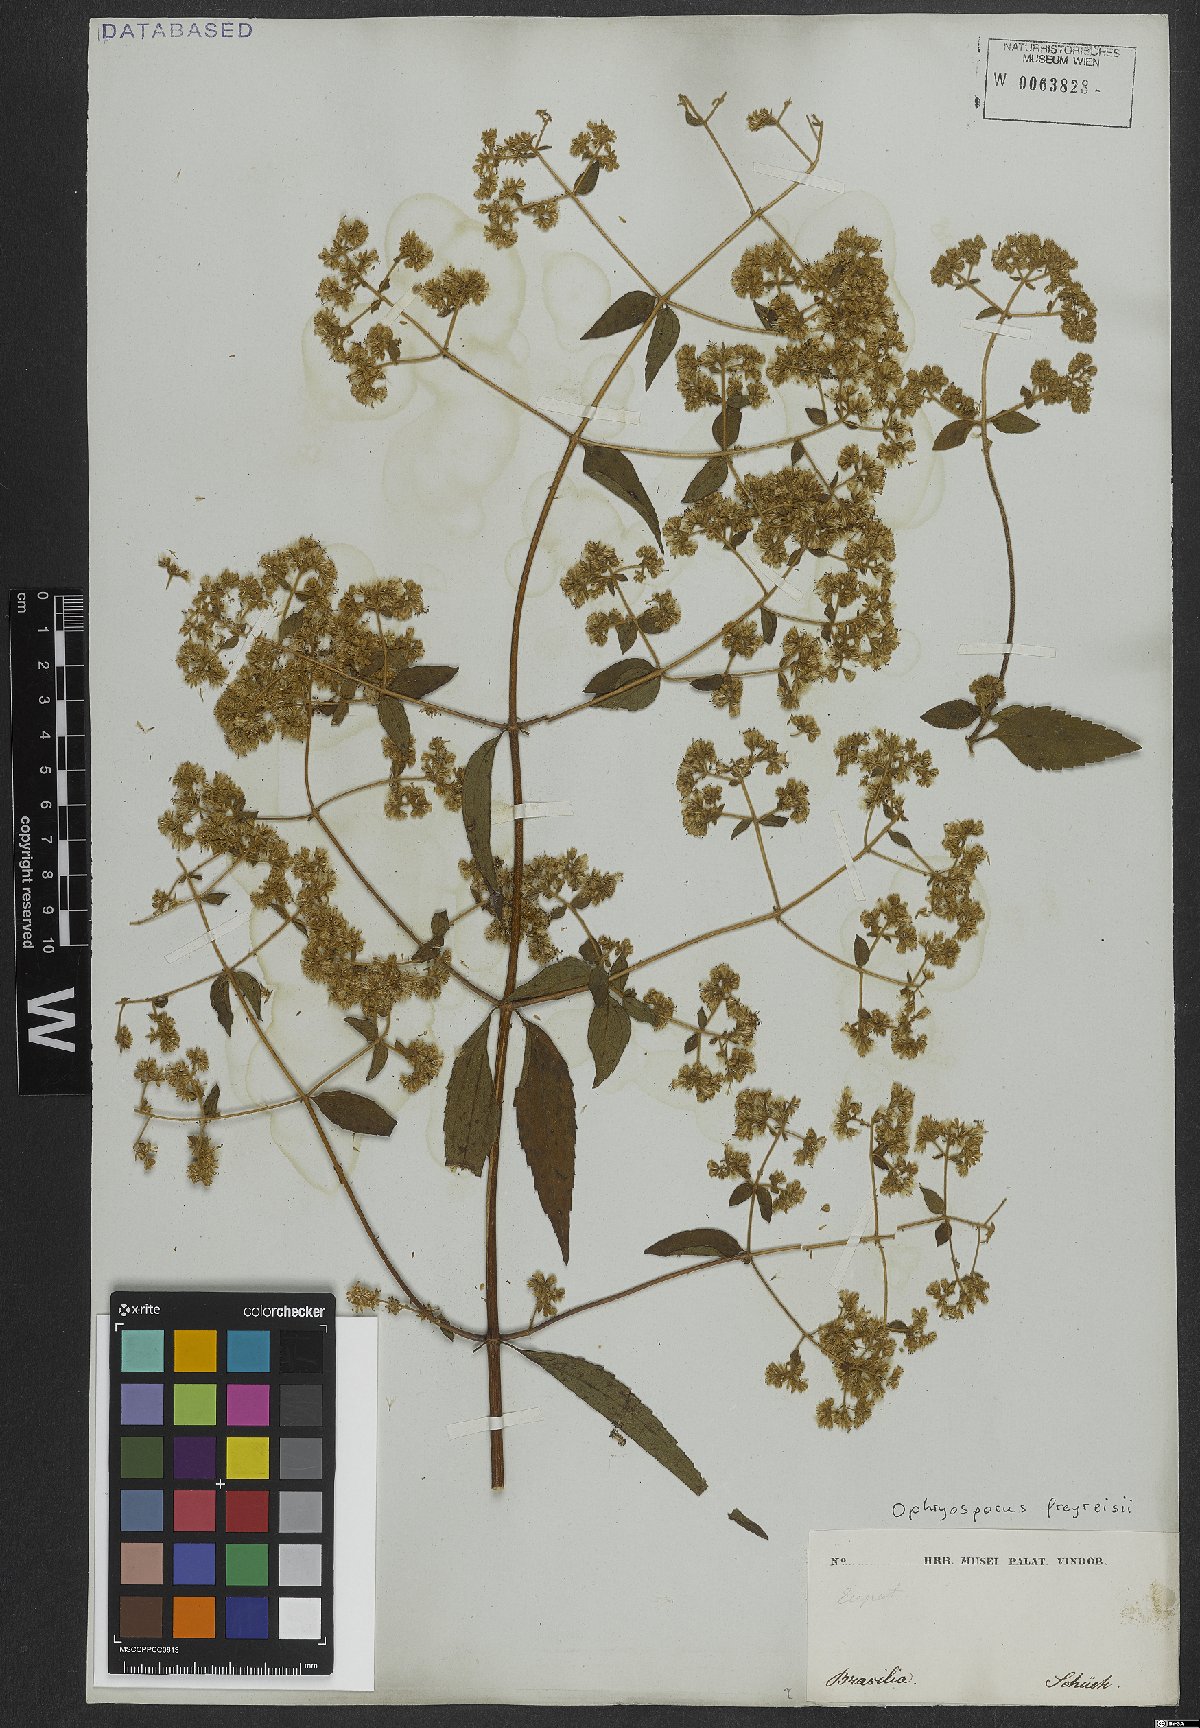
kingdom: Plantae
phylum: Tracheophyta
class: Magnoliopsida
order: Asterales
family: Asteraceae
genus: Ophryosporus
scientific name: Ophryosporus freyreysi
